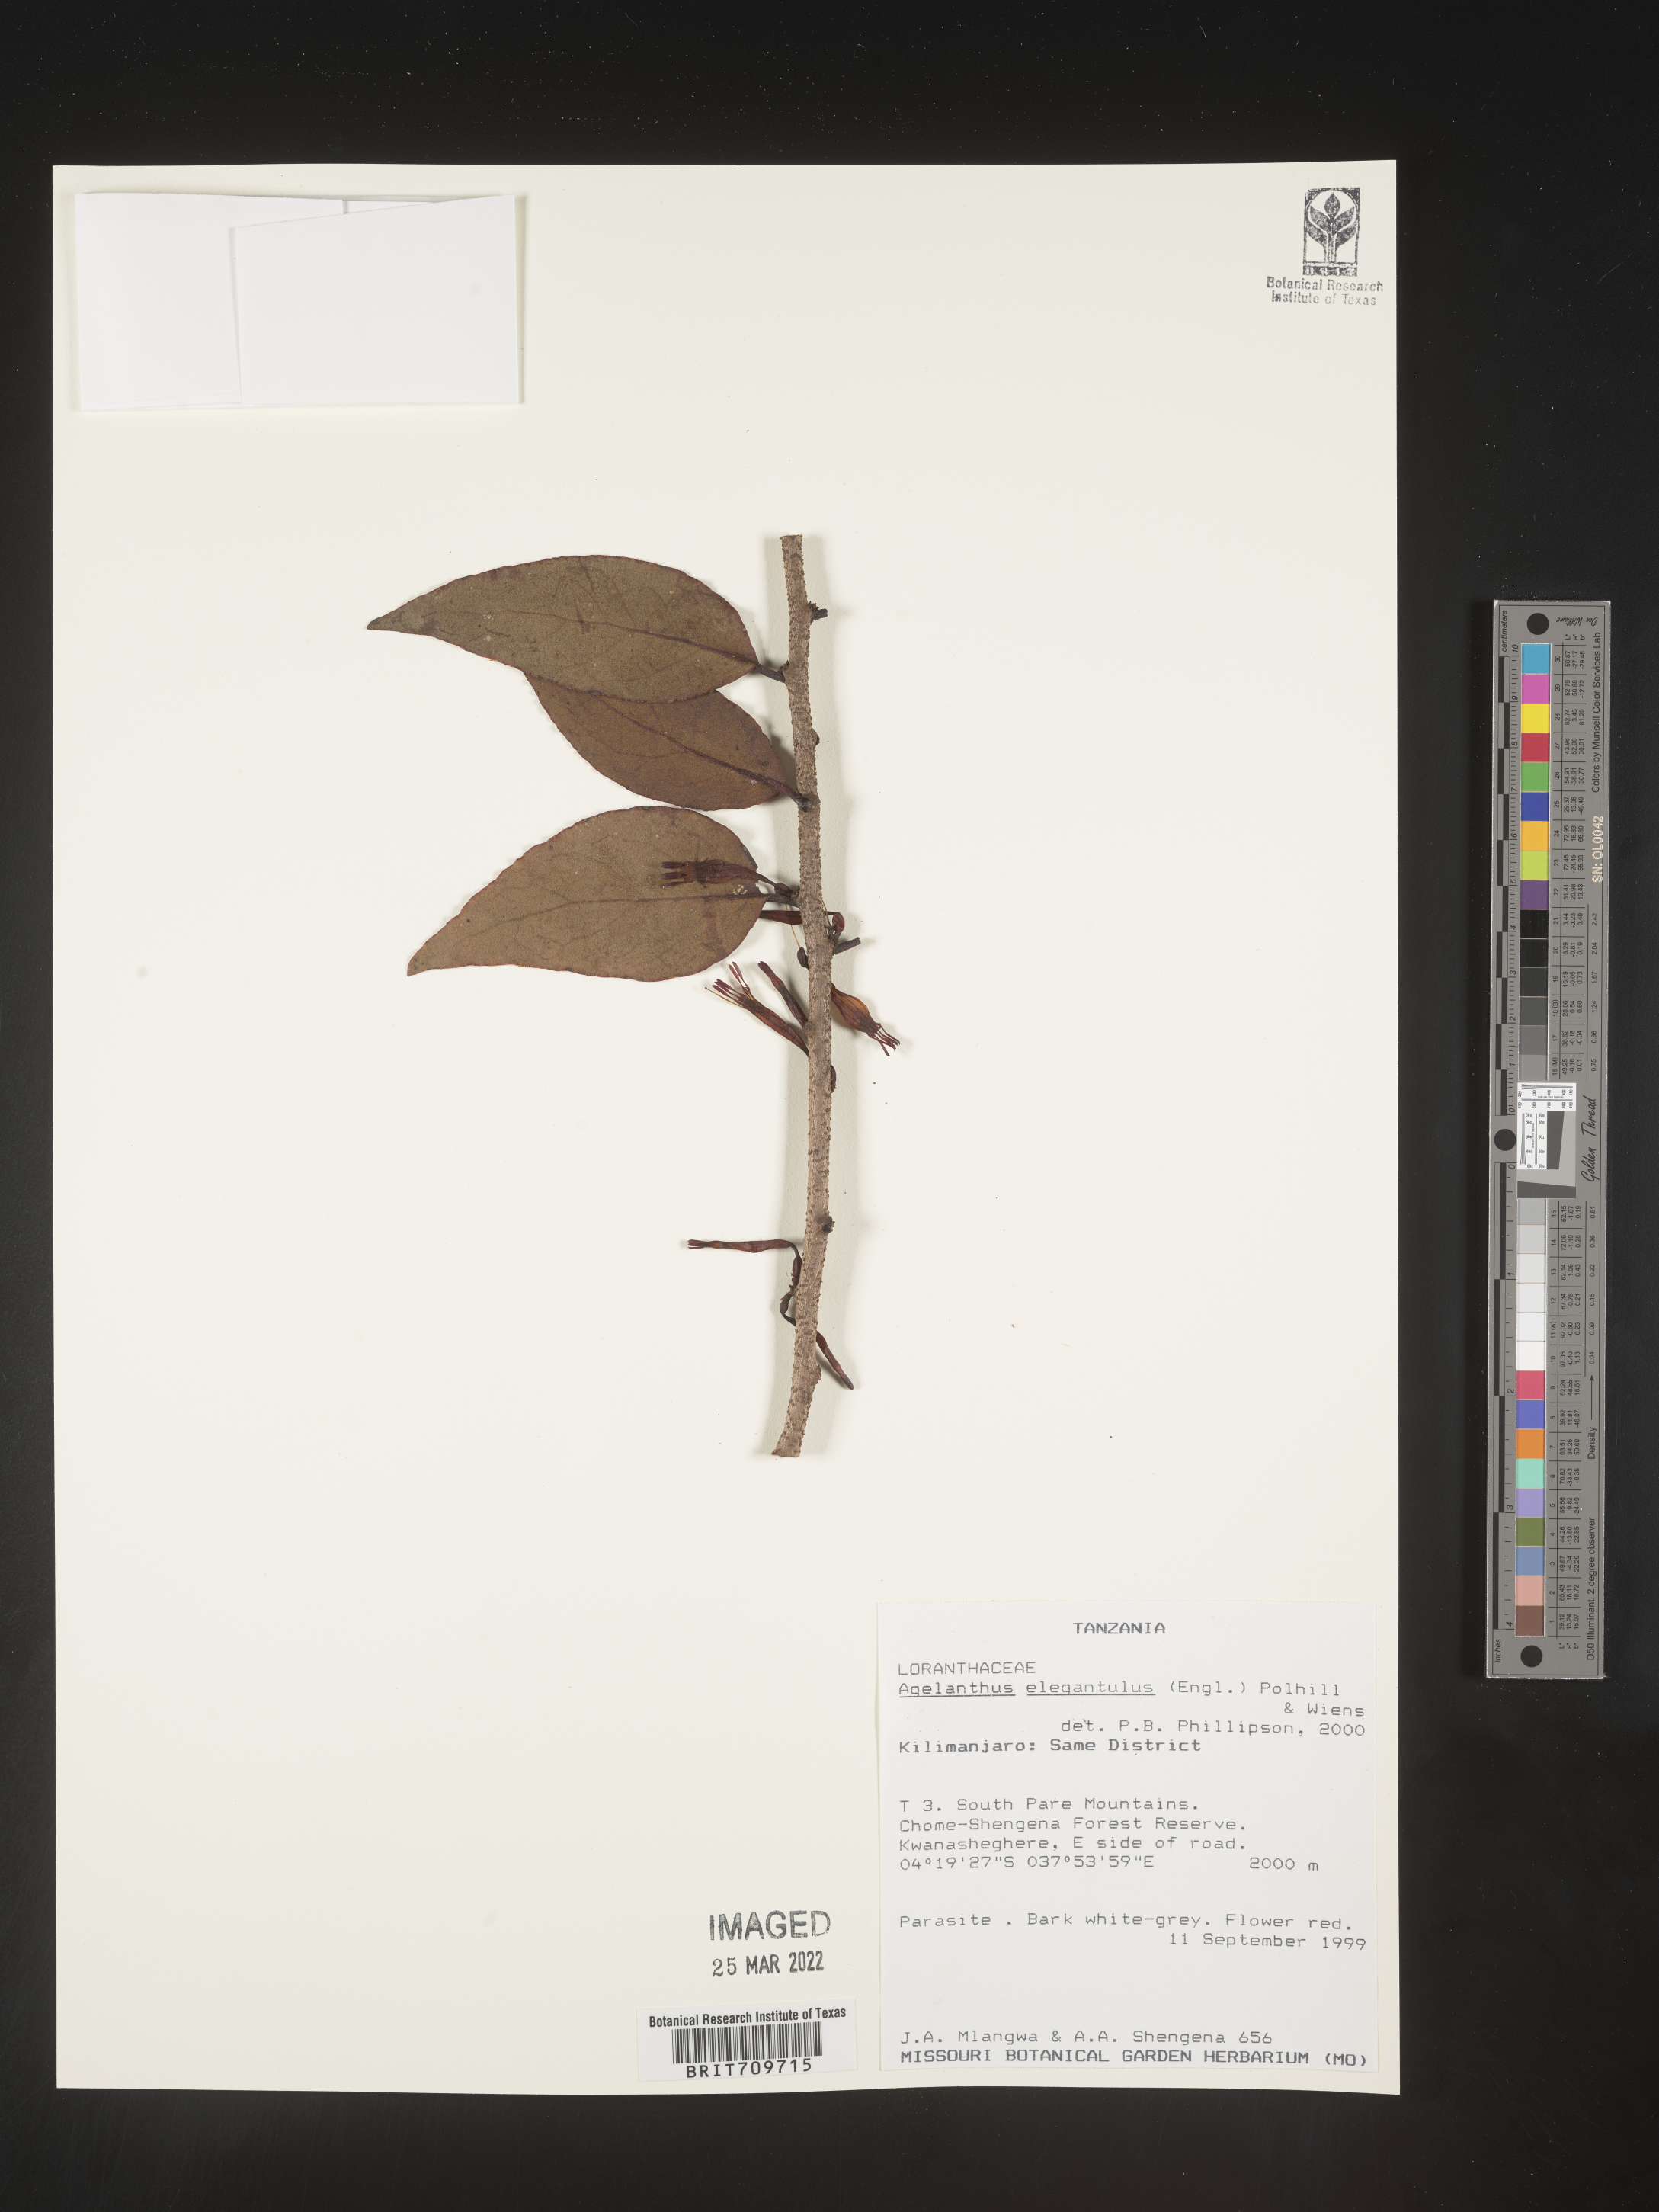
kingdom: Plantae
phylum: Tracheophyta
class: Magnoliopsida
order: Santalales
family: Loranthaceae
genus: Agelanthus
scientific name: Agelanthus
